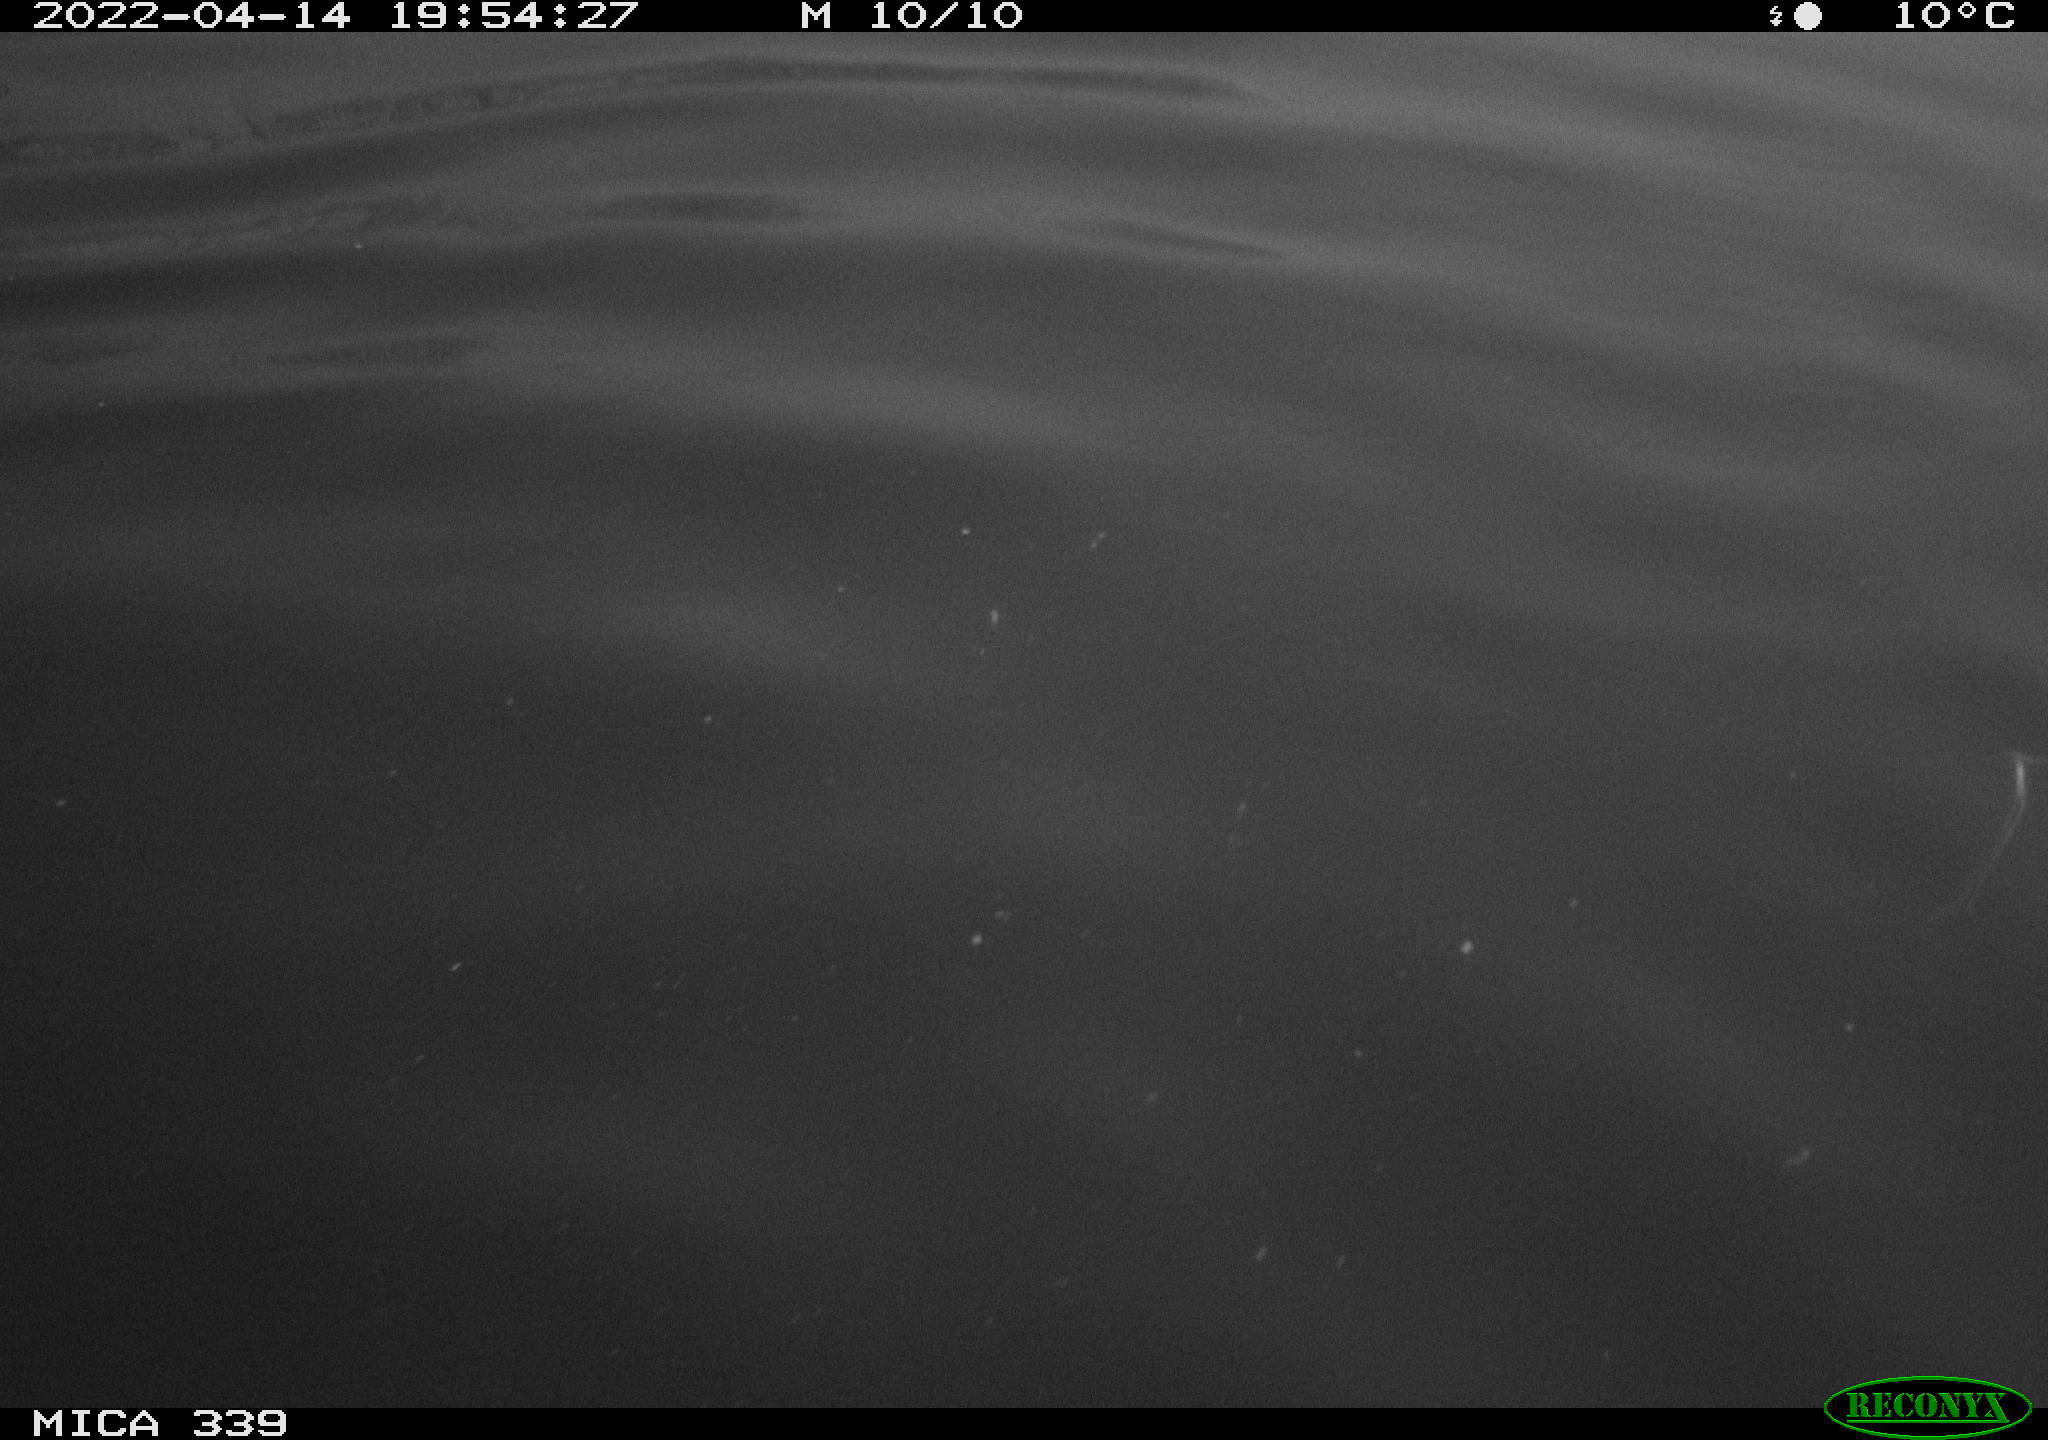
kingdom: Animalia
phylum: Chordata
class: Aves
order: Anseriformes
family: Anatidae
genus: Anas
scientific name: Anas platyrhynchos
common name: Mallard
